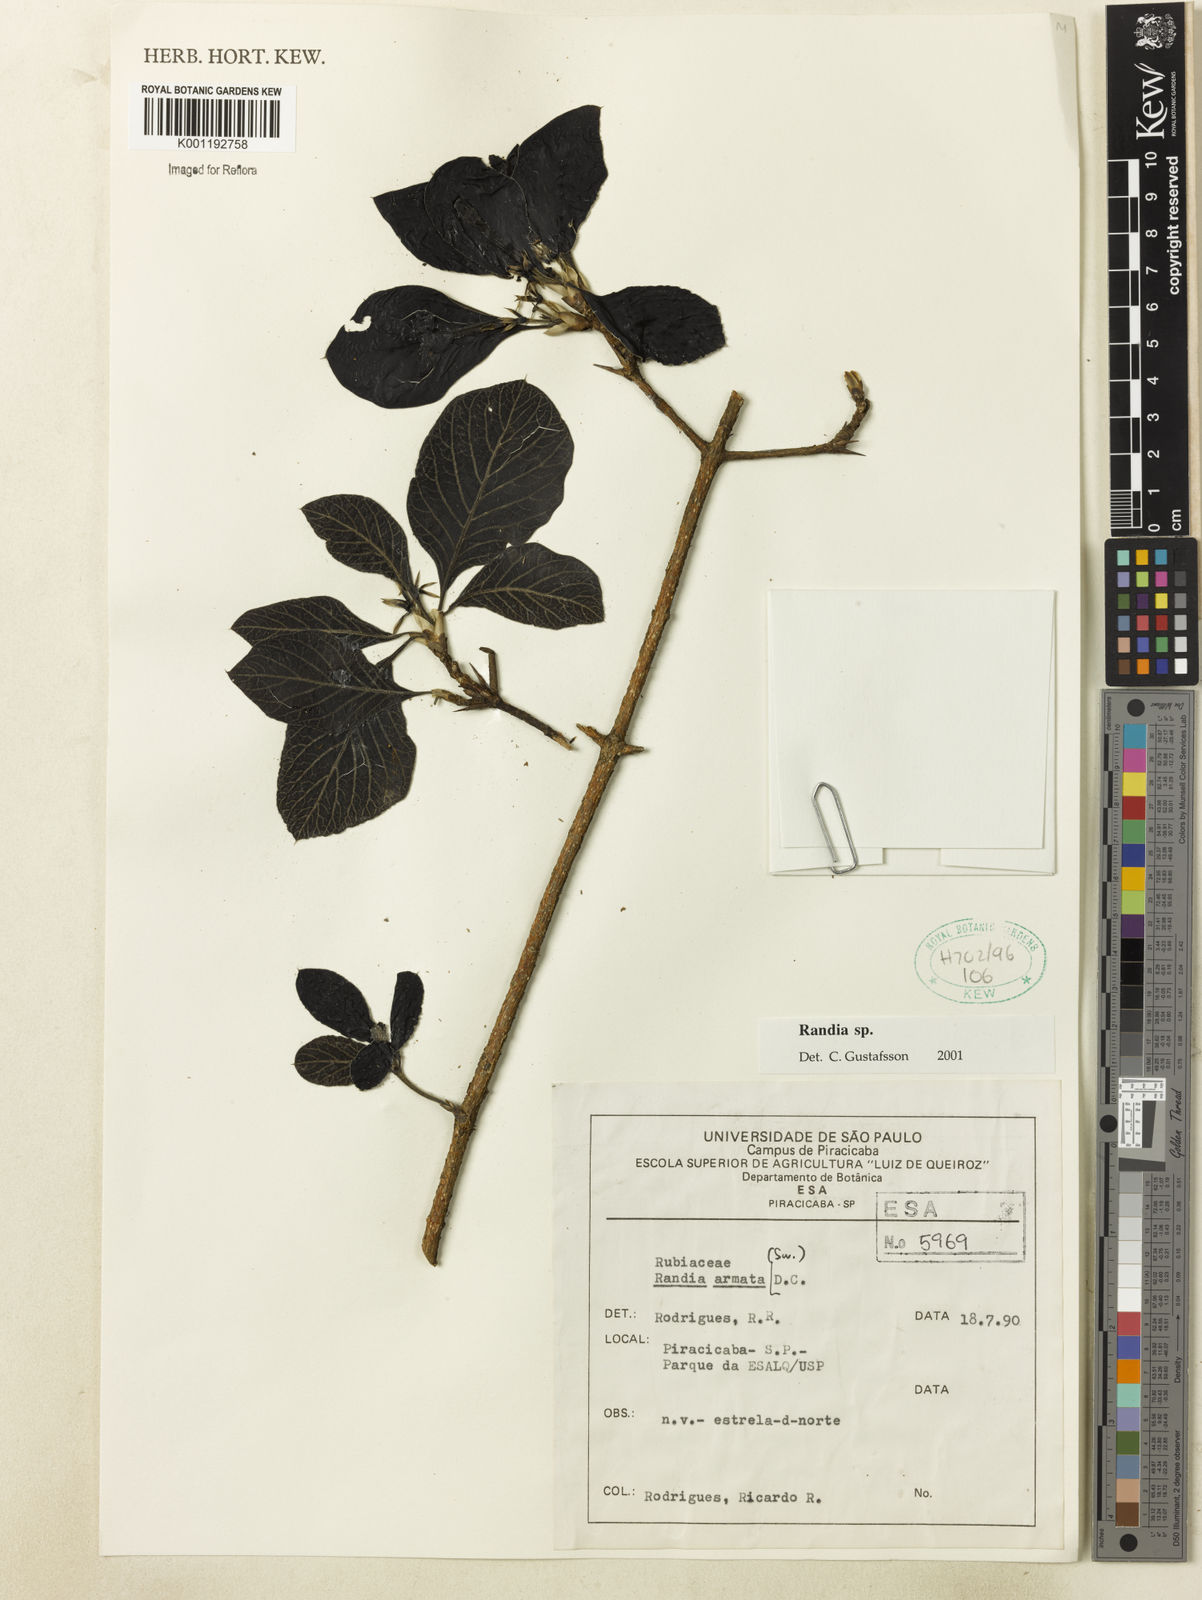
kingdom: Plantae
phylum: Tracheophyta
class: Magnoliopsida
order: Gentianales
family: Rubiaceae
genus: Randia
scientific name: Randia
